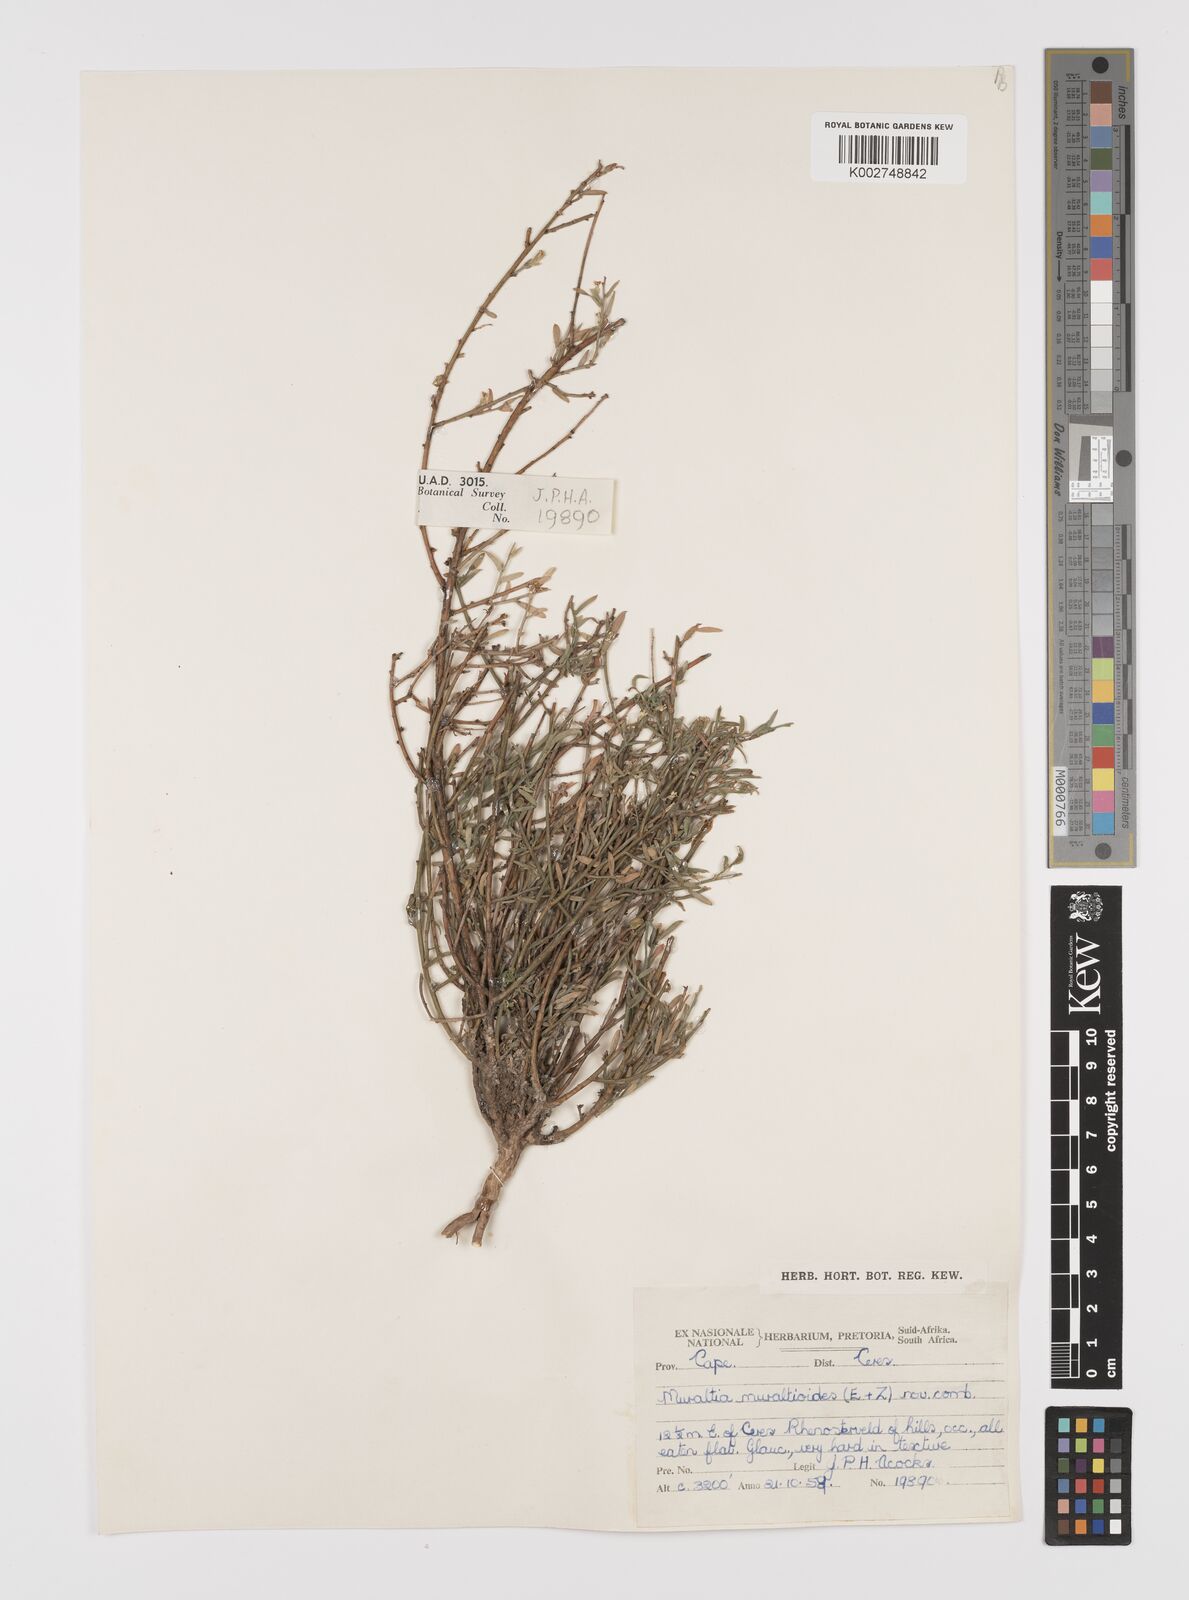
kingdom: Plantae
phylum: Tracheophyta
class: Magnoliopsida
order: Fabales
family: Polygalaceae
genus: Muraltia
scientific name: Muraltia muraltioides
